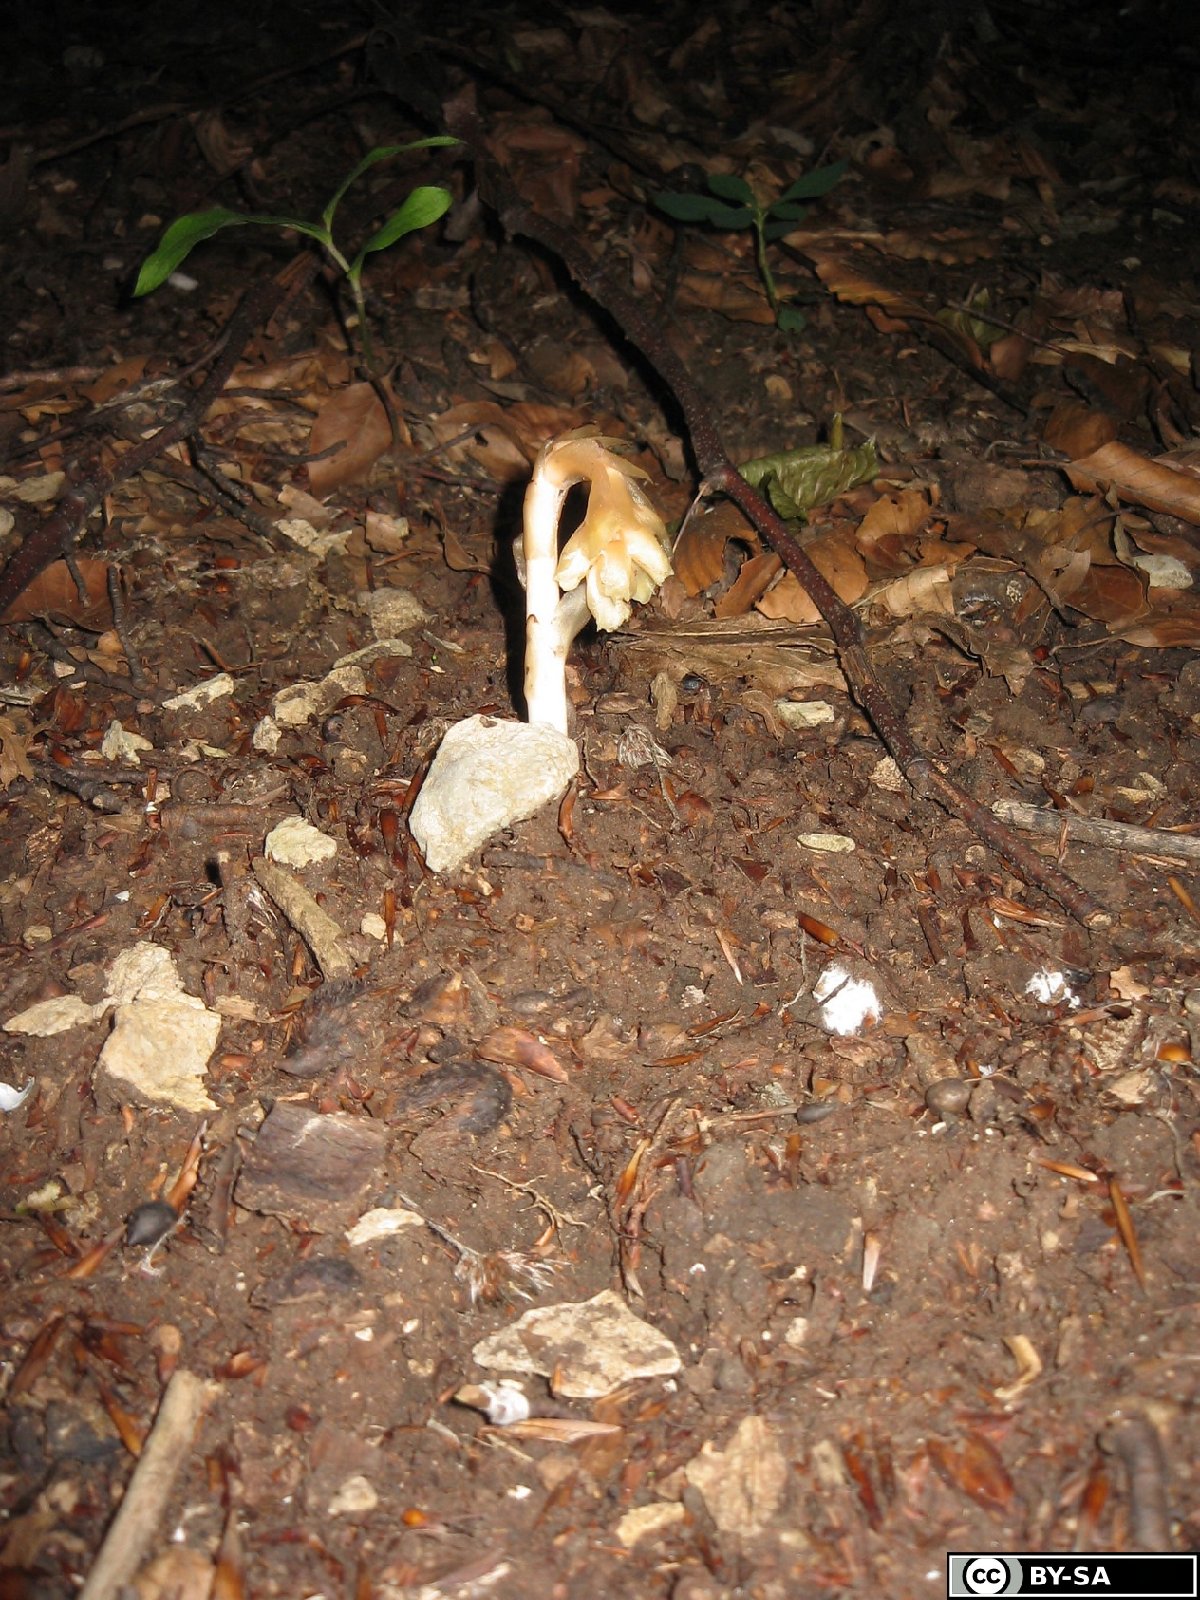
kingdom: Plantae
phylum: Tracheophyta
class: Magnoliopsida
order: Ericales
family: Ericaceae
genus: Hypopitys
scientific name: Hypopitys hypophegea
